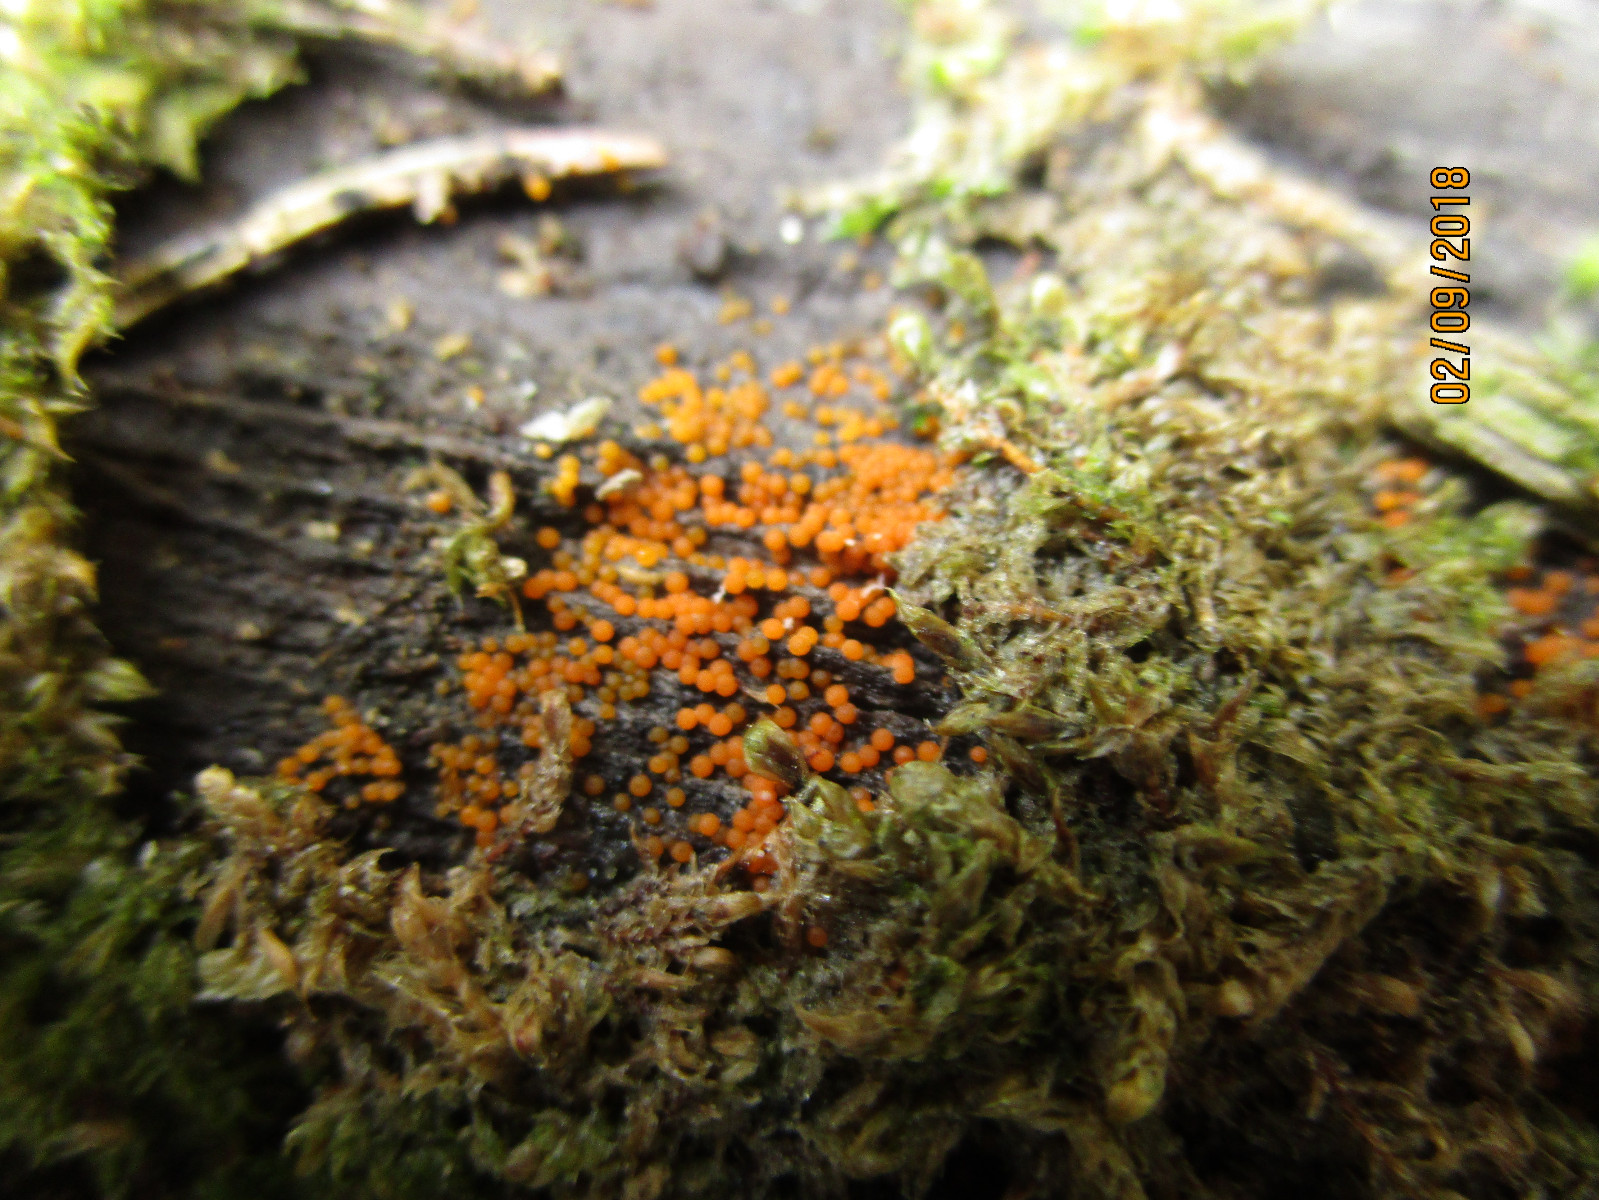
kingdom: Fungi
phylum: Ascomycota
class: Sordariomycetes
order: Hypocreales
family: Nectriaceae
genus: Hydropisphaera
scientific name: Hydropisphaera peziza
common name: skålformet gyldenkerne
